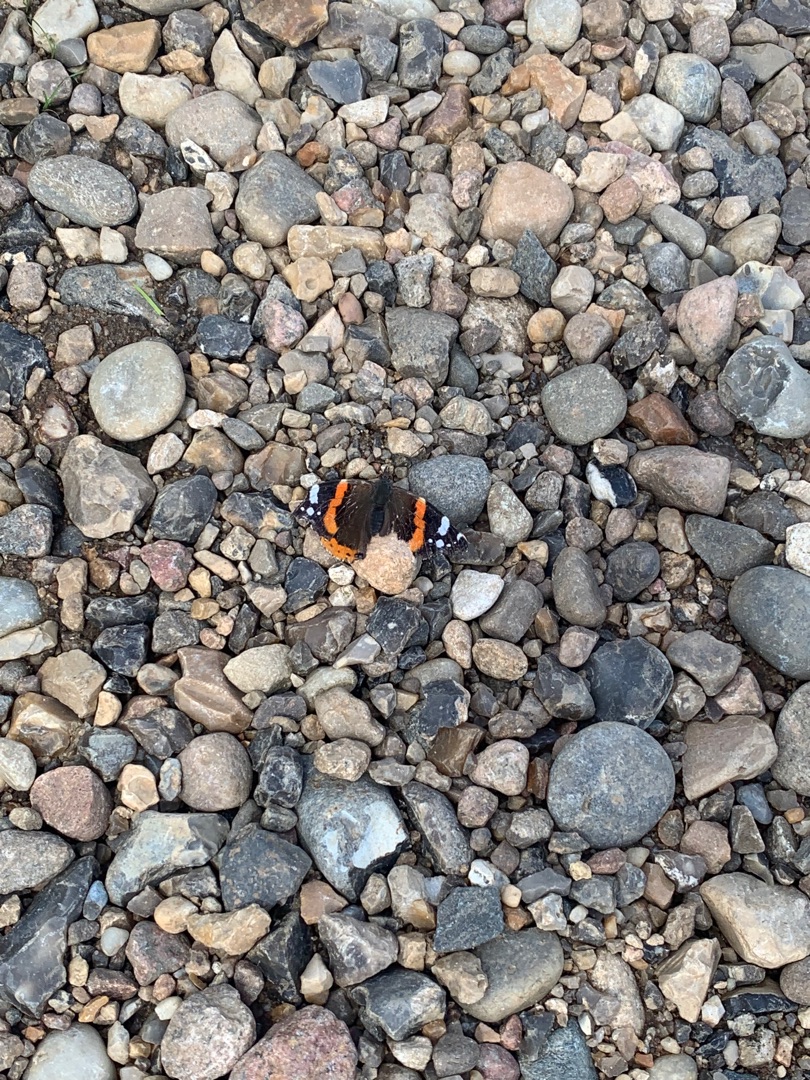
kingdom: Animalia
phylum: Arthropoda
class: Insecta
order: Lepidoptera
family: Nymphalidae
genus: Vanessa
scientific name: Vanessa atalanta
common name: Admiral
